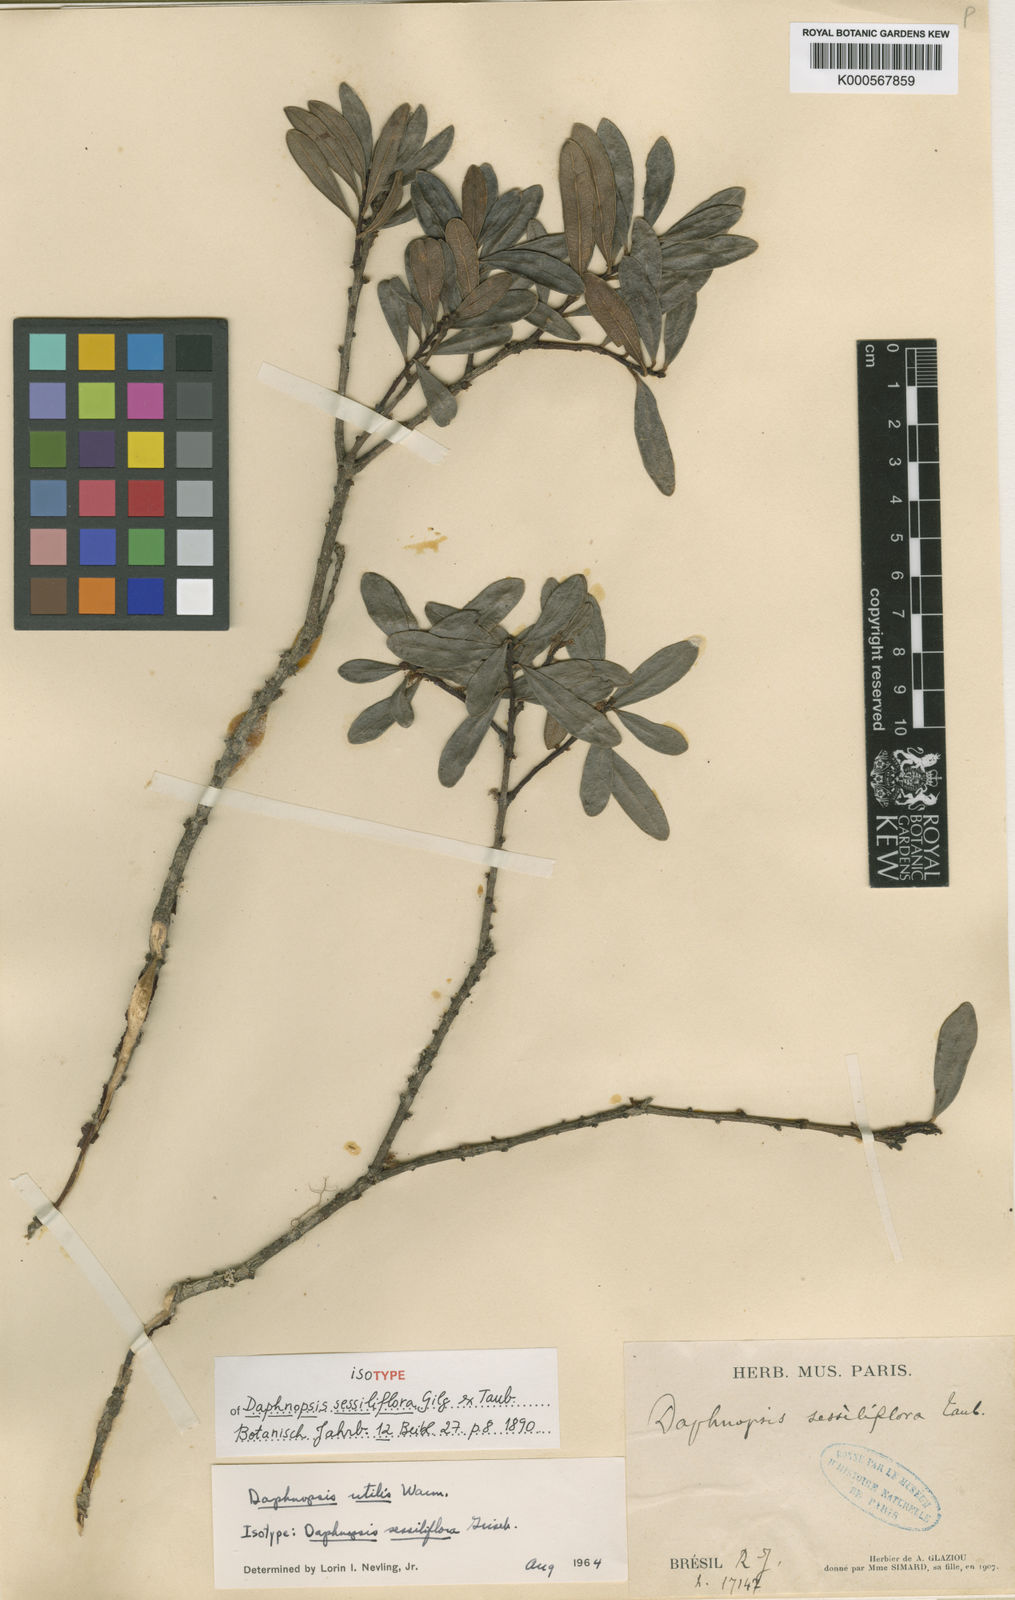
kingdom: Plantae
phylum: Tracheophyta
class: Magnoliopsida
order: Malvales
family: Thymelaeaceae
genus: Daphnopsis
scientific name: Daphnopsis utilis
